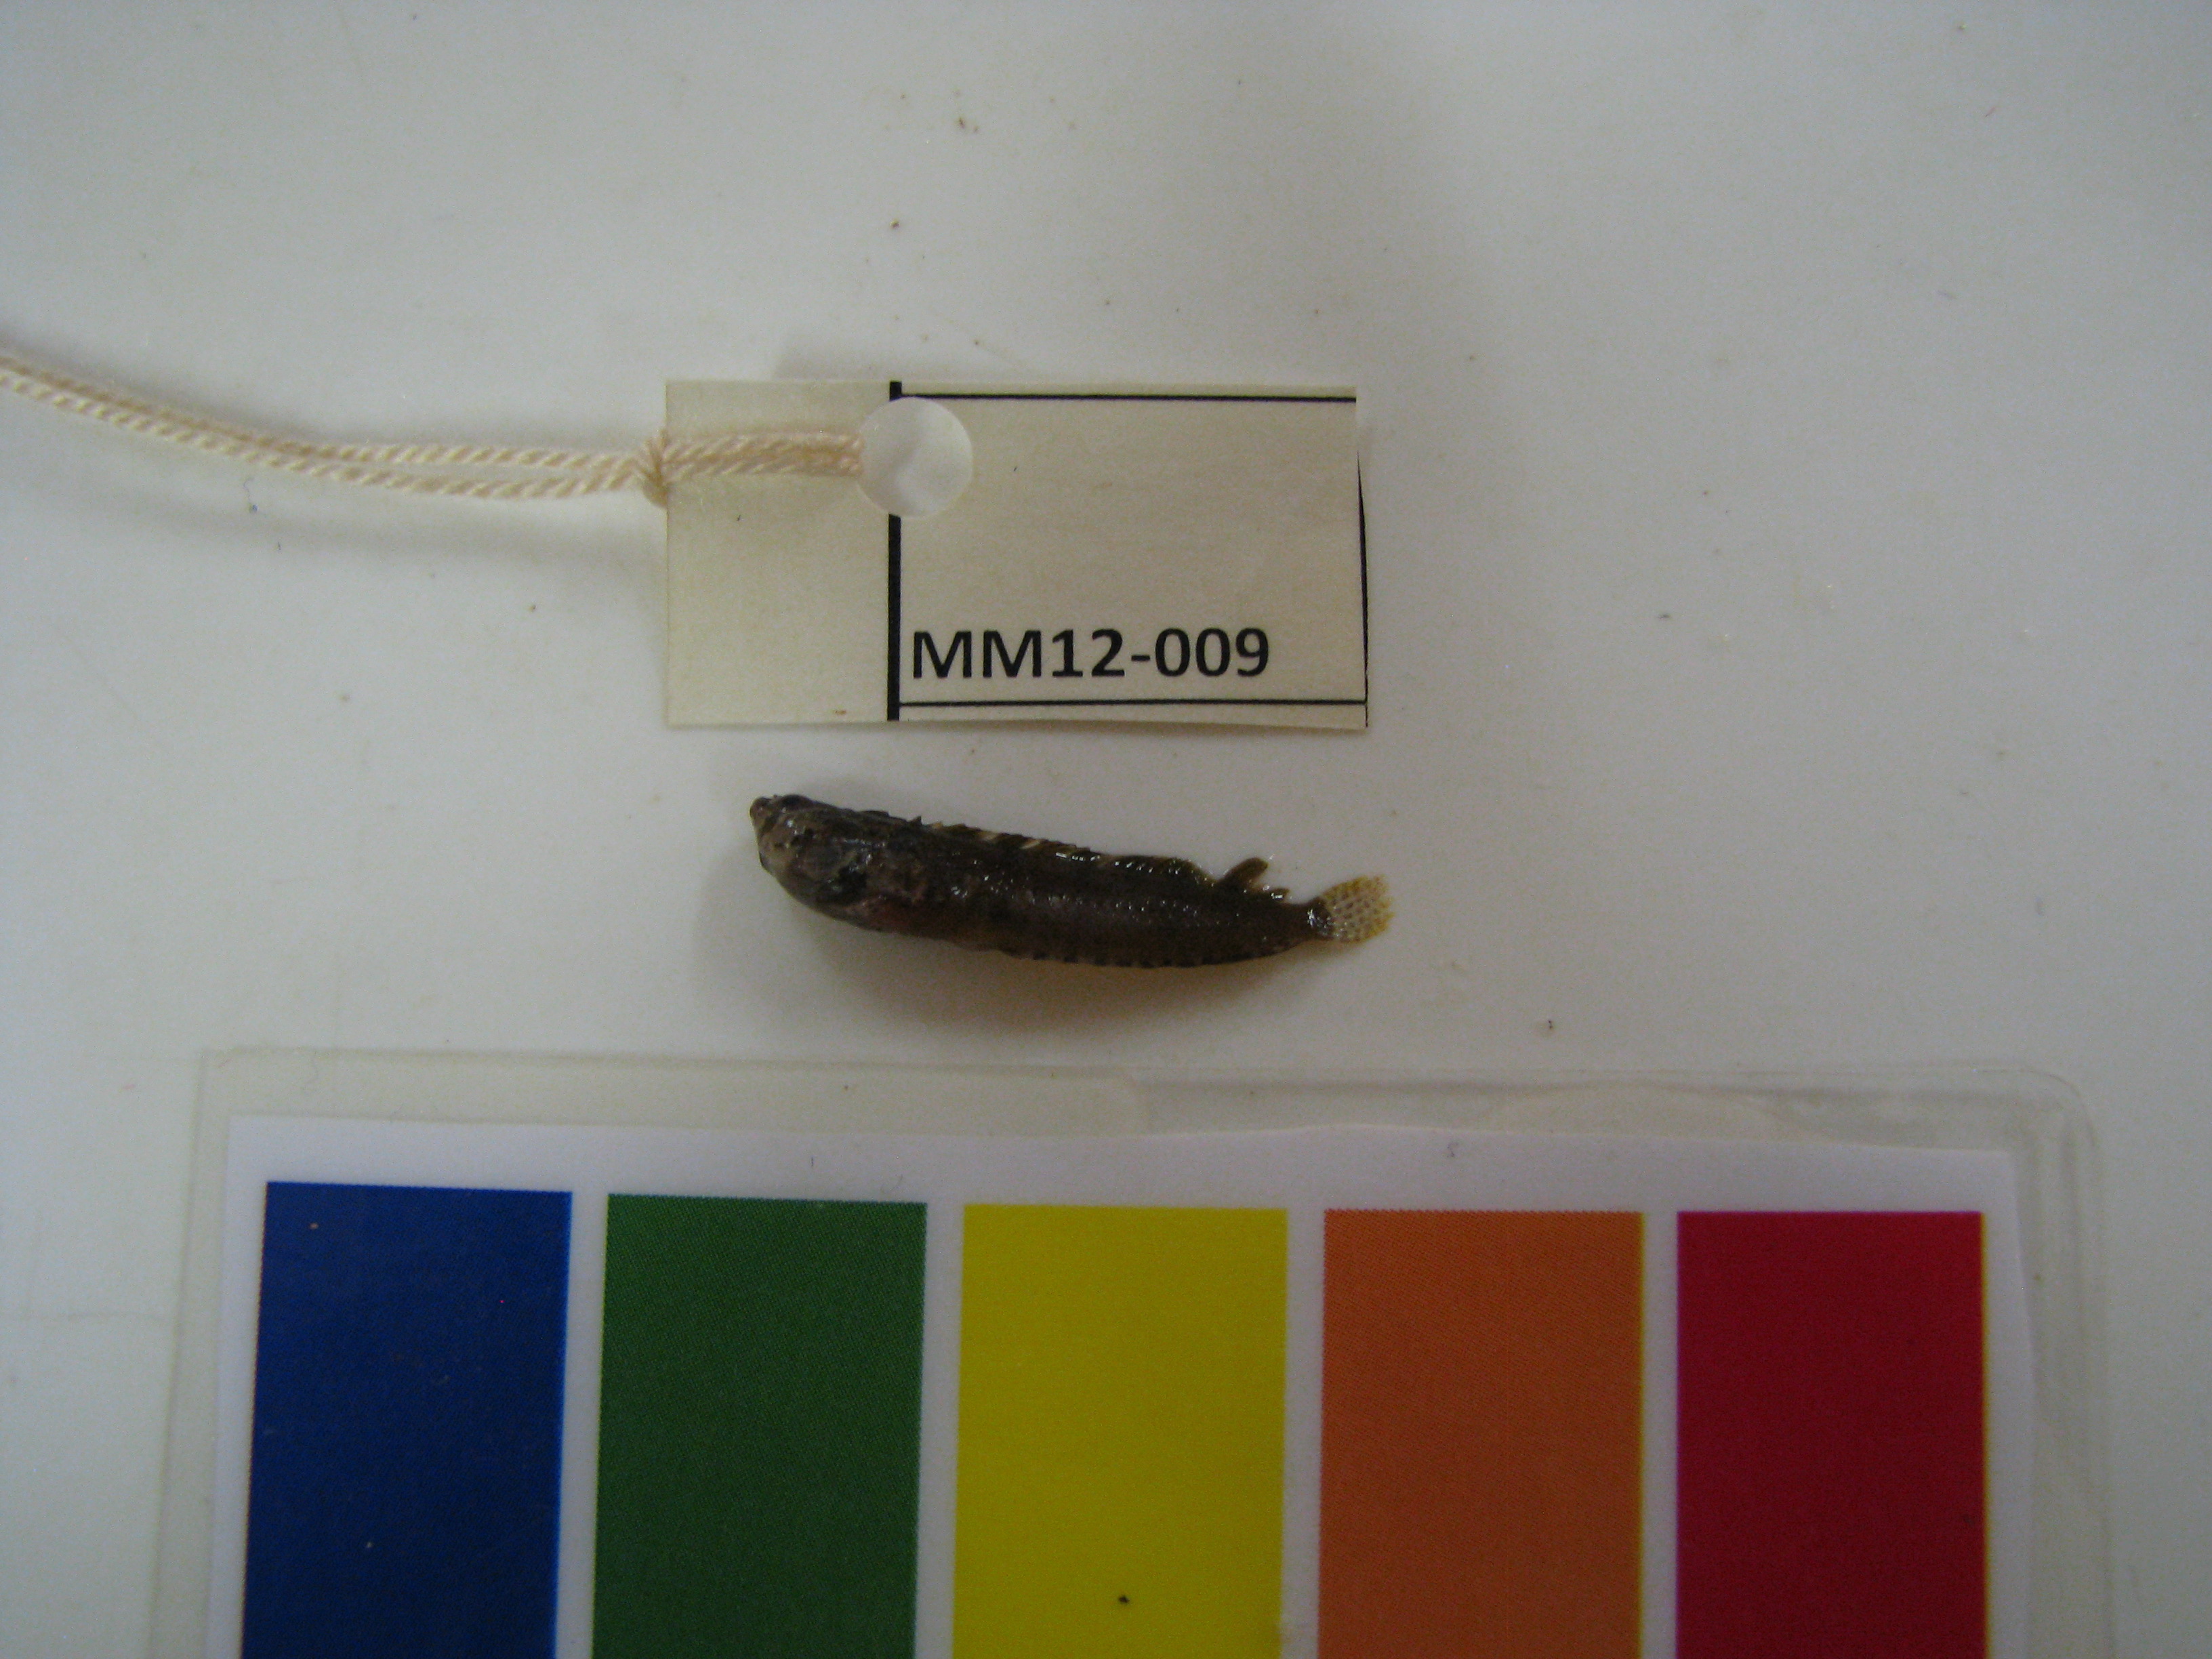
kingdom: Animalia
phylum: Chordata
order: Perciformes
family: Clinidae
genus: Fucomimus
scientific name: Fucomimus mus
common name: Mousey klipfish
